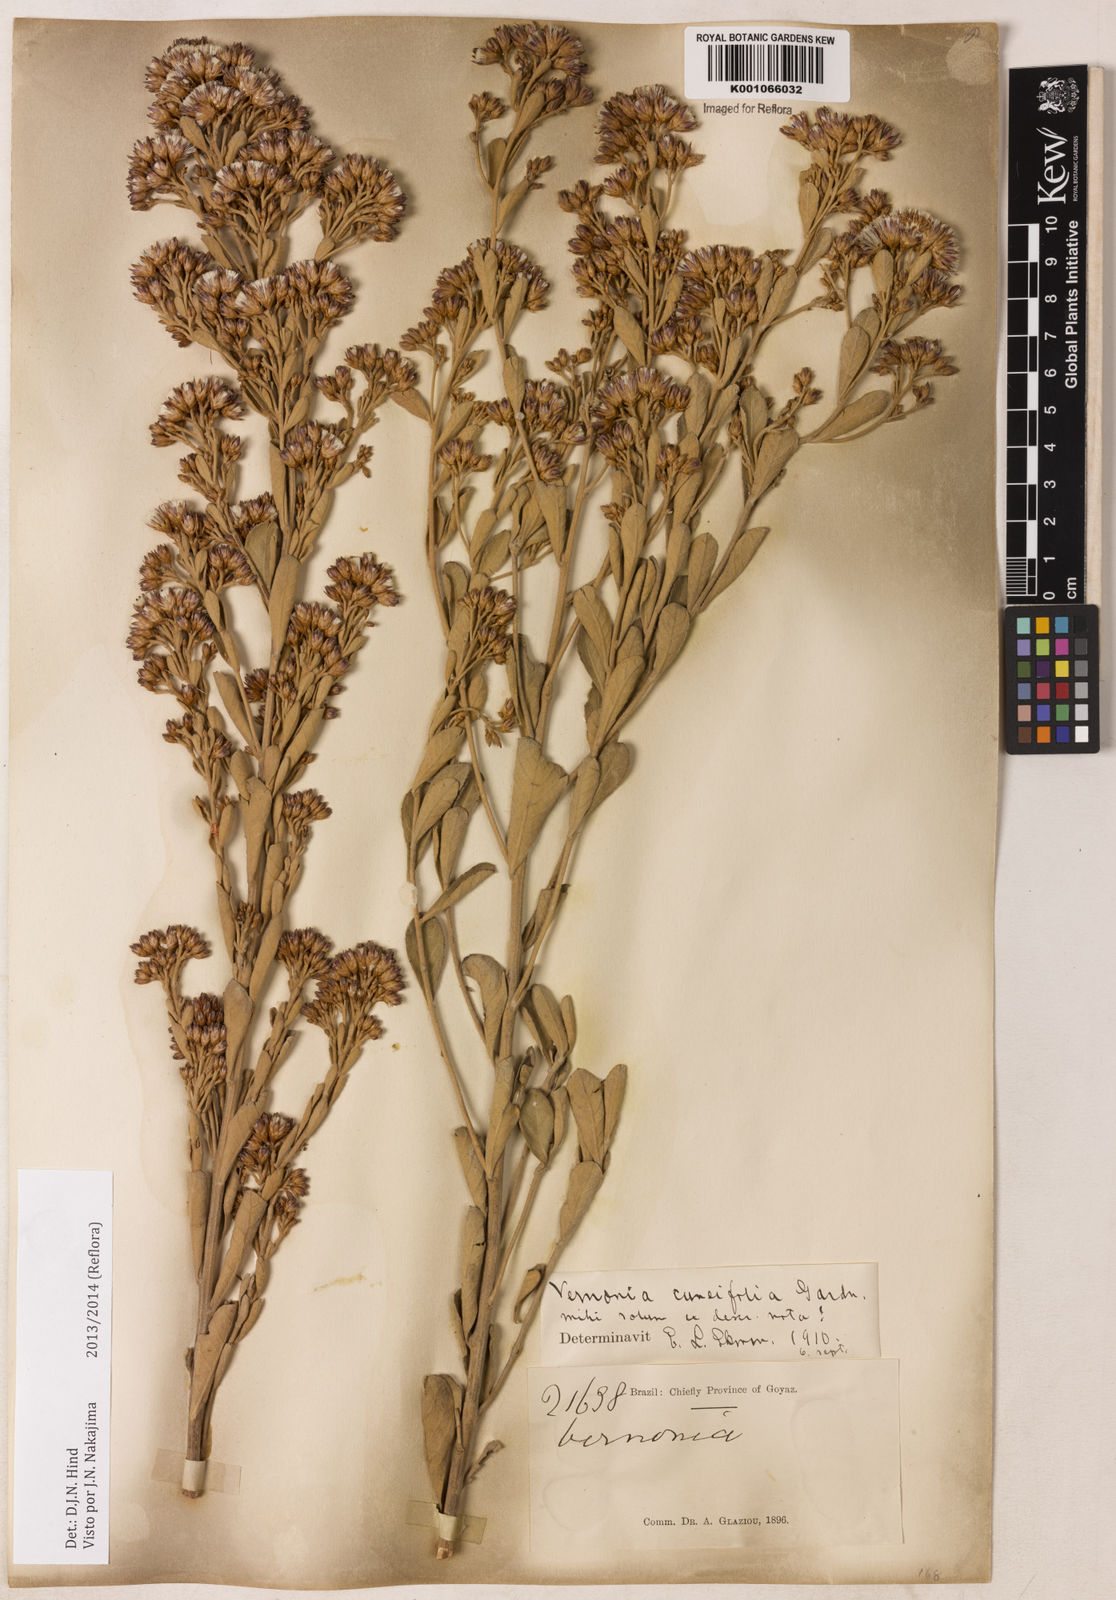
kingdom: Plantae
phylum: Tracheophyta
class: Magnoliopsida
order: Asterales
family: Asteraceae
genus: Vernonanthura
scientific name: Vernonanthura cuneifolia
